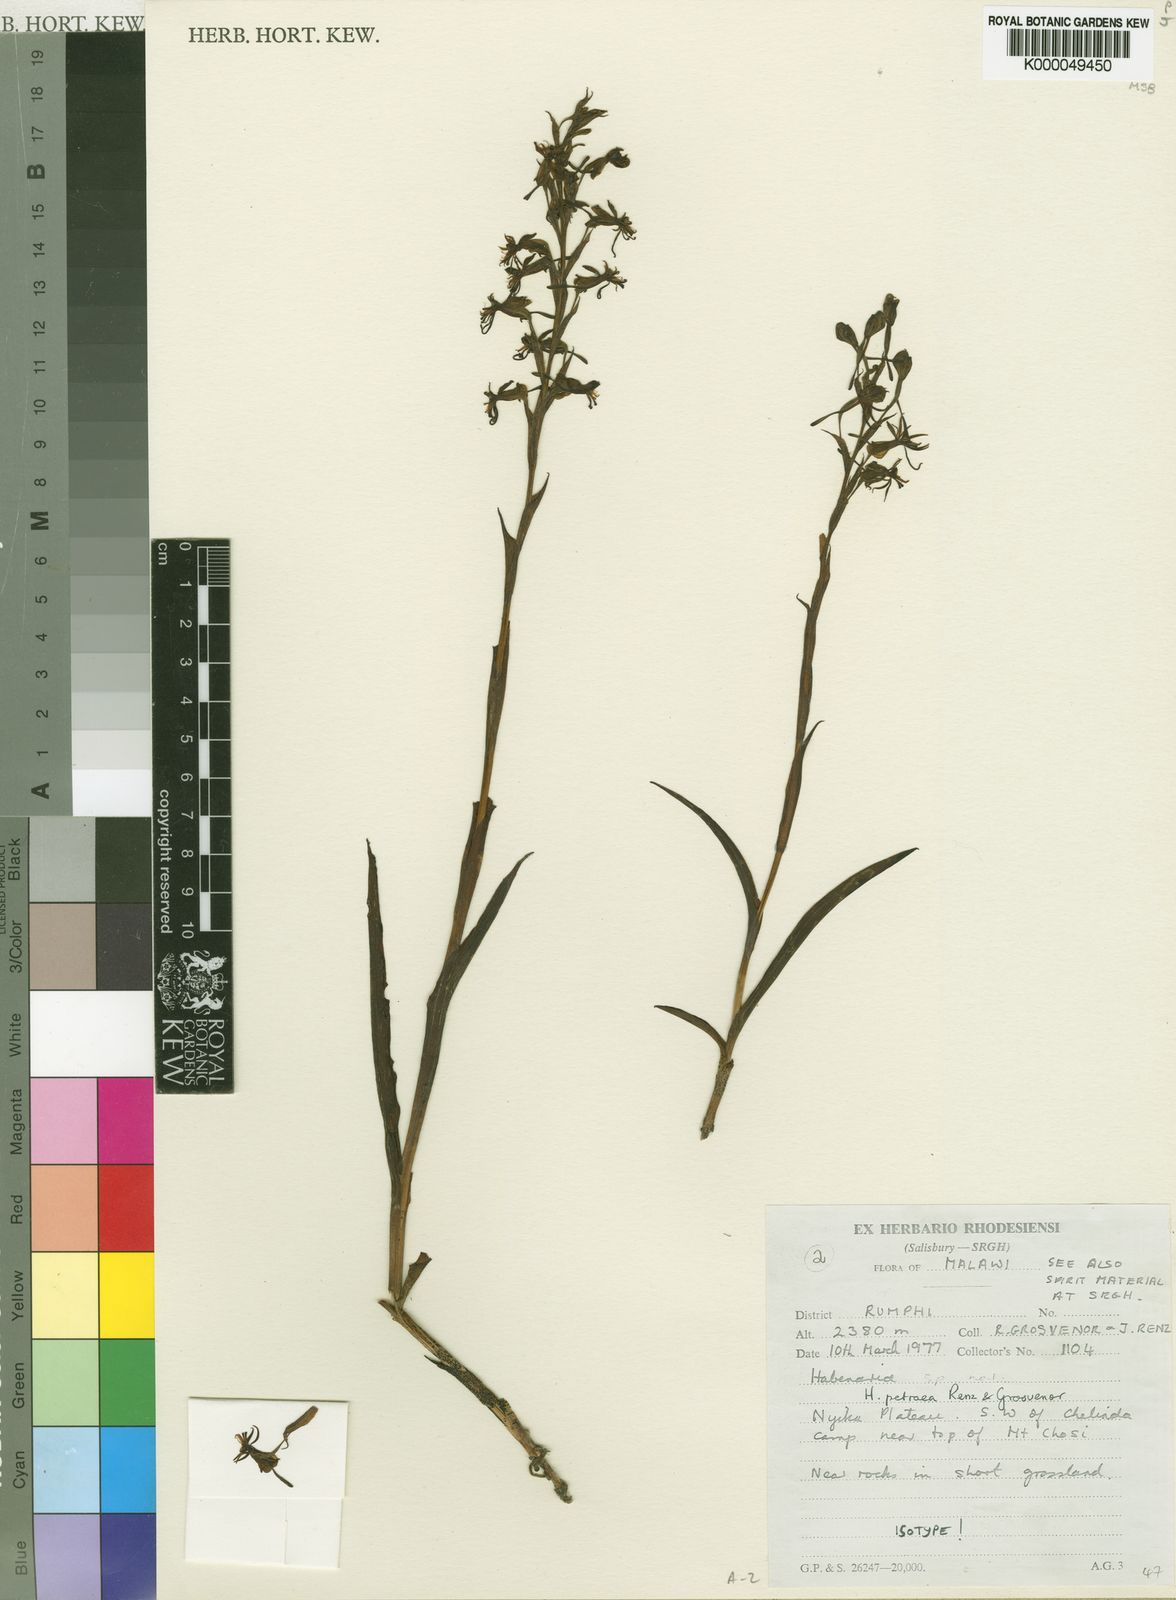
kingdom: Plantae
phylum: Tracheophyta
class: Liliopsida
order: Asparagales
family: Orchidaceae
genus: Habenaria
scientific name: Habenaria petraea
